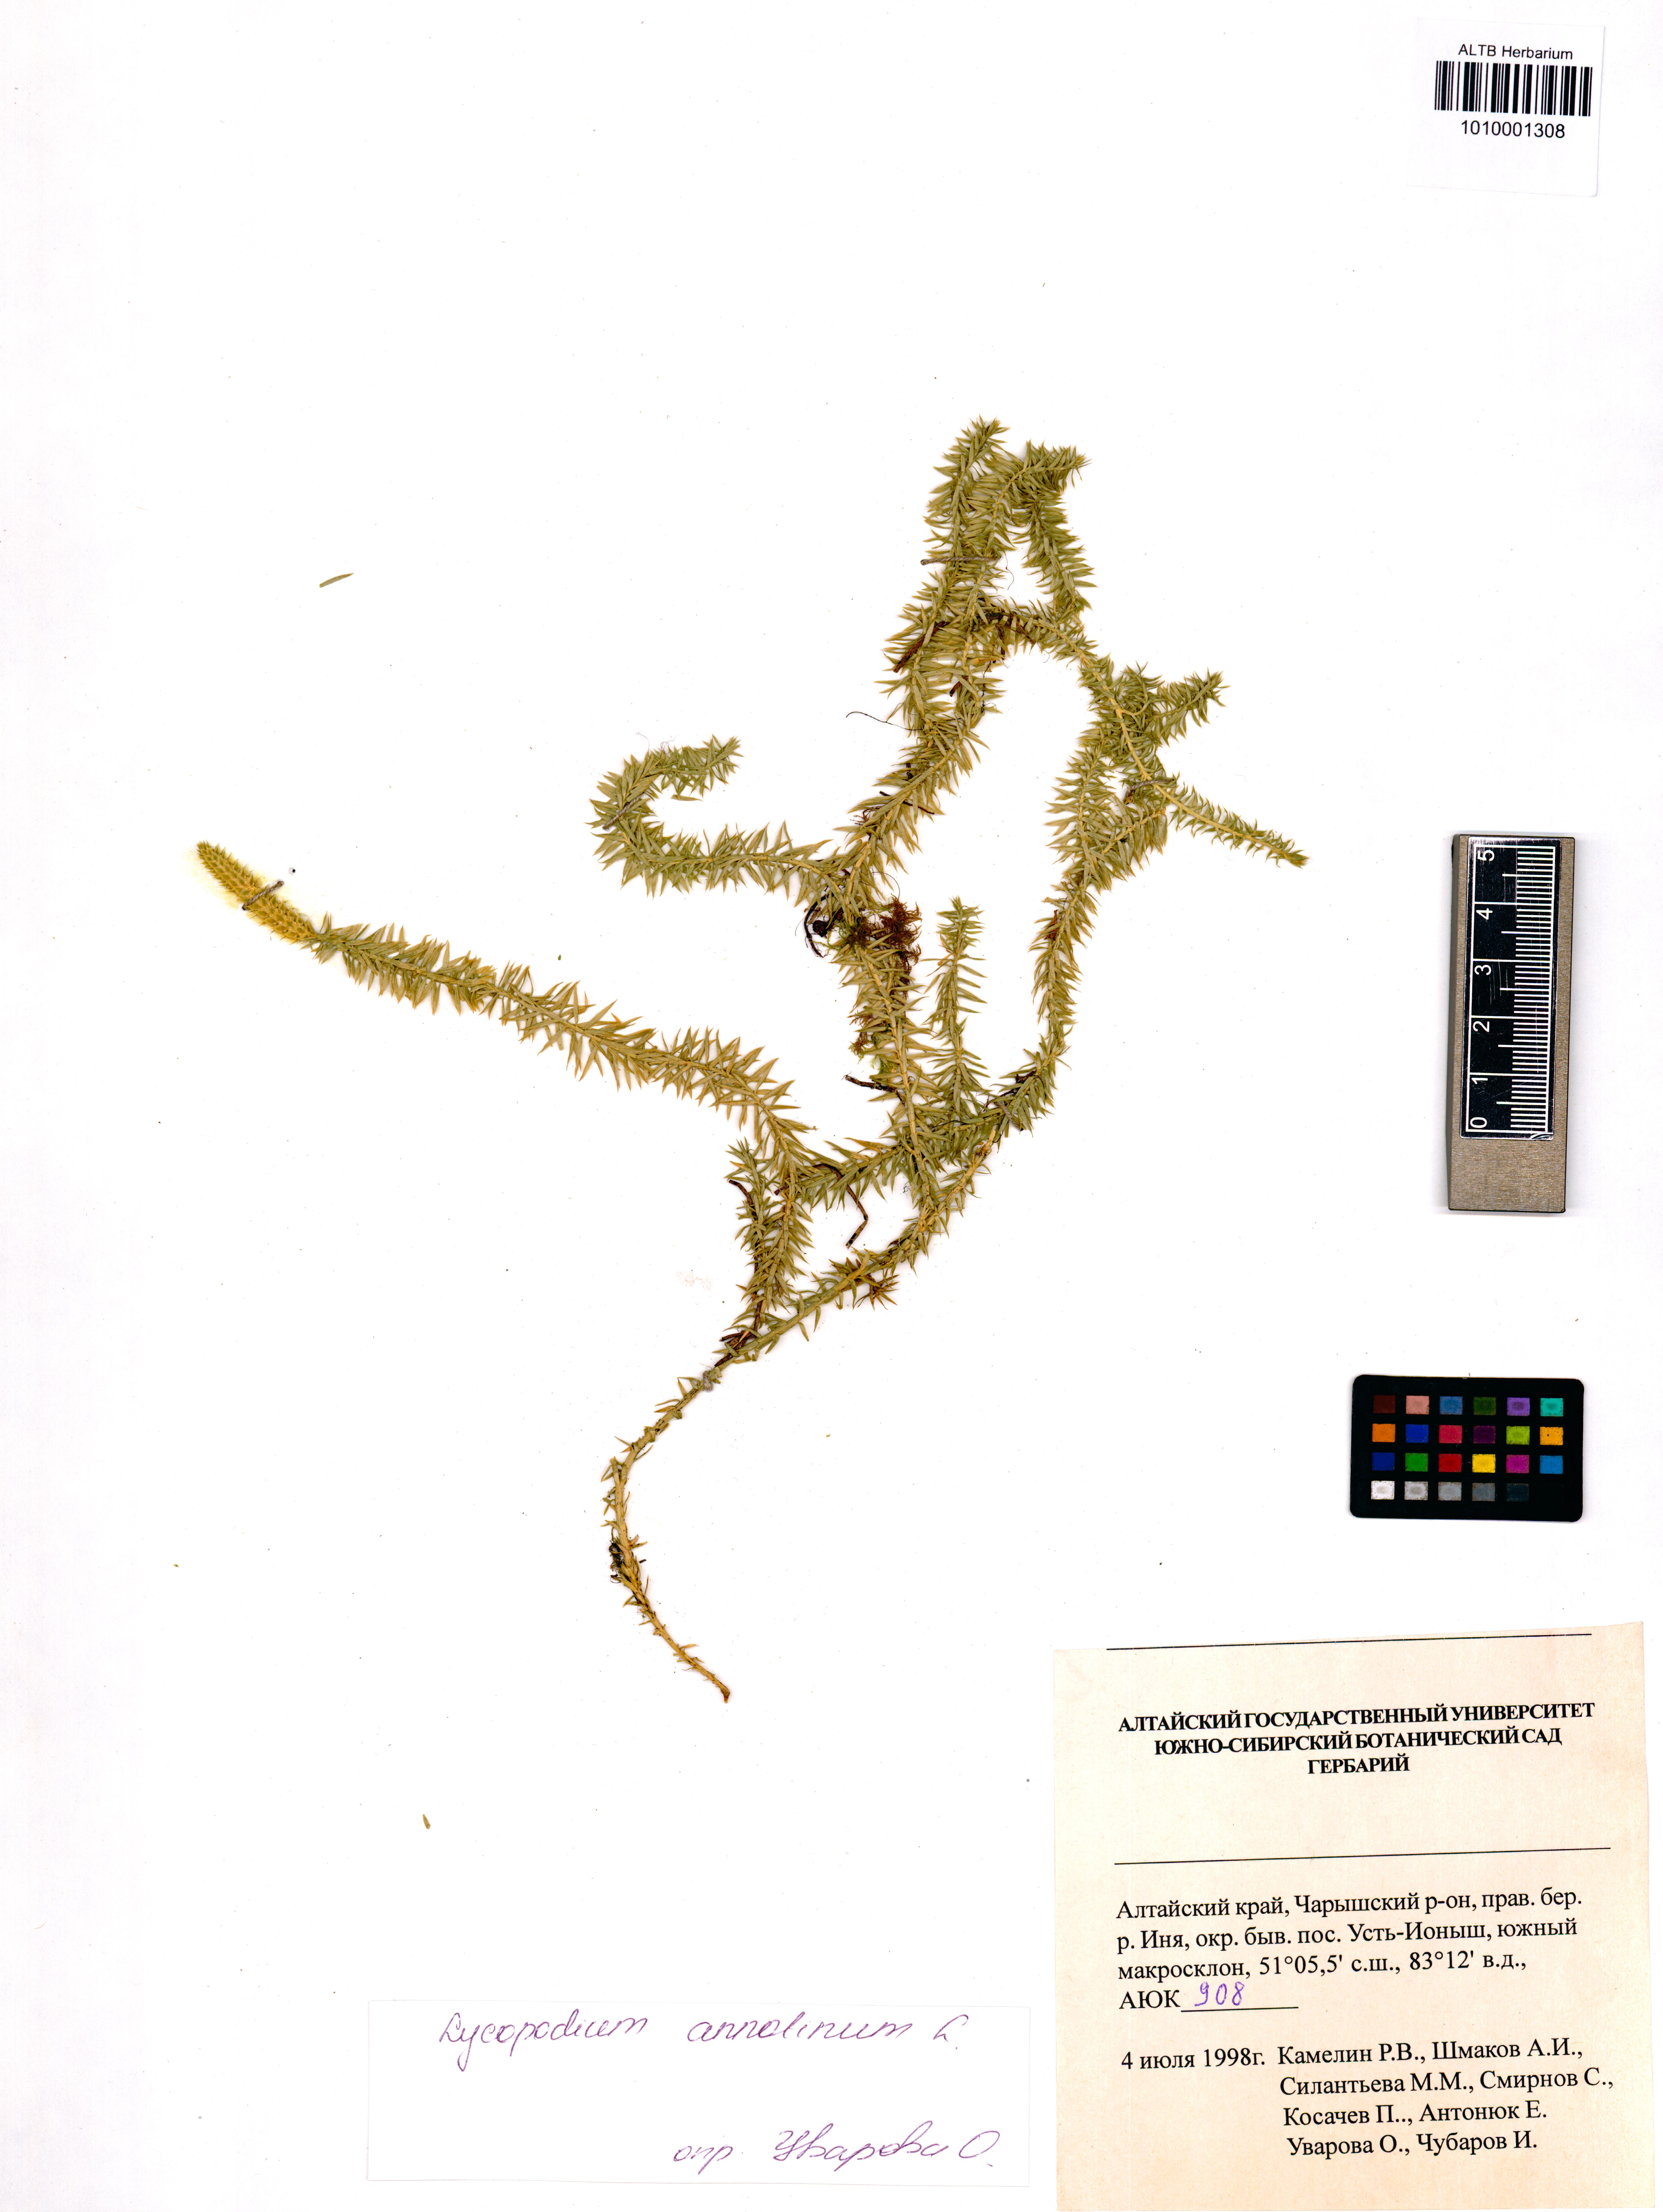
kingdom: Plantae
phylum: Tracheophyta
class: Lycopodiopsida
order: Lycopodiales
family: Lycopodiaceae
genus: Spinulum
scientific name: Spinulum annotinum
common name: Interrupted club-moss
